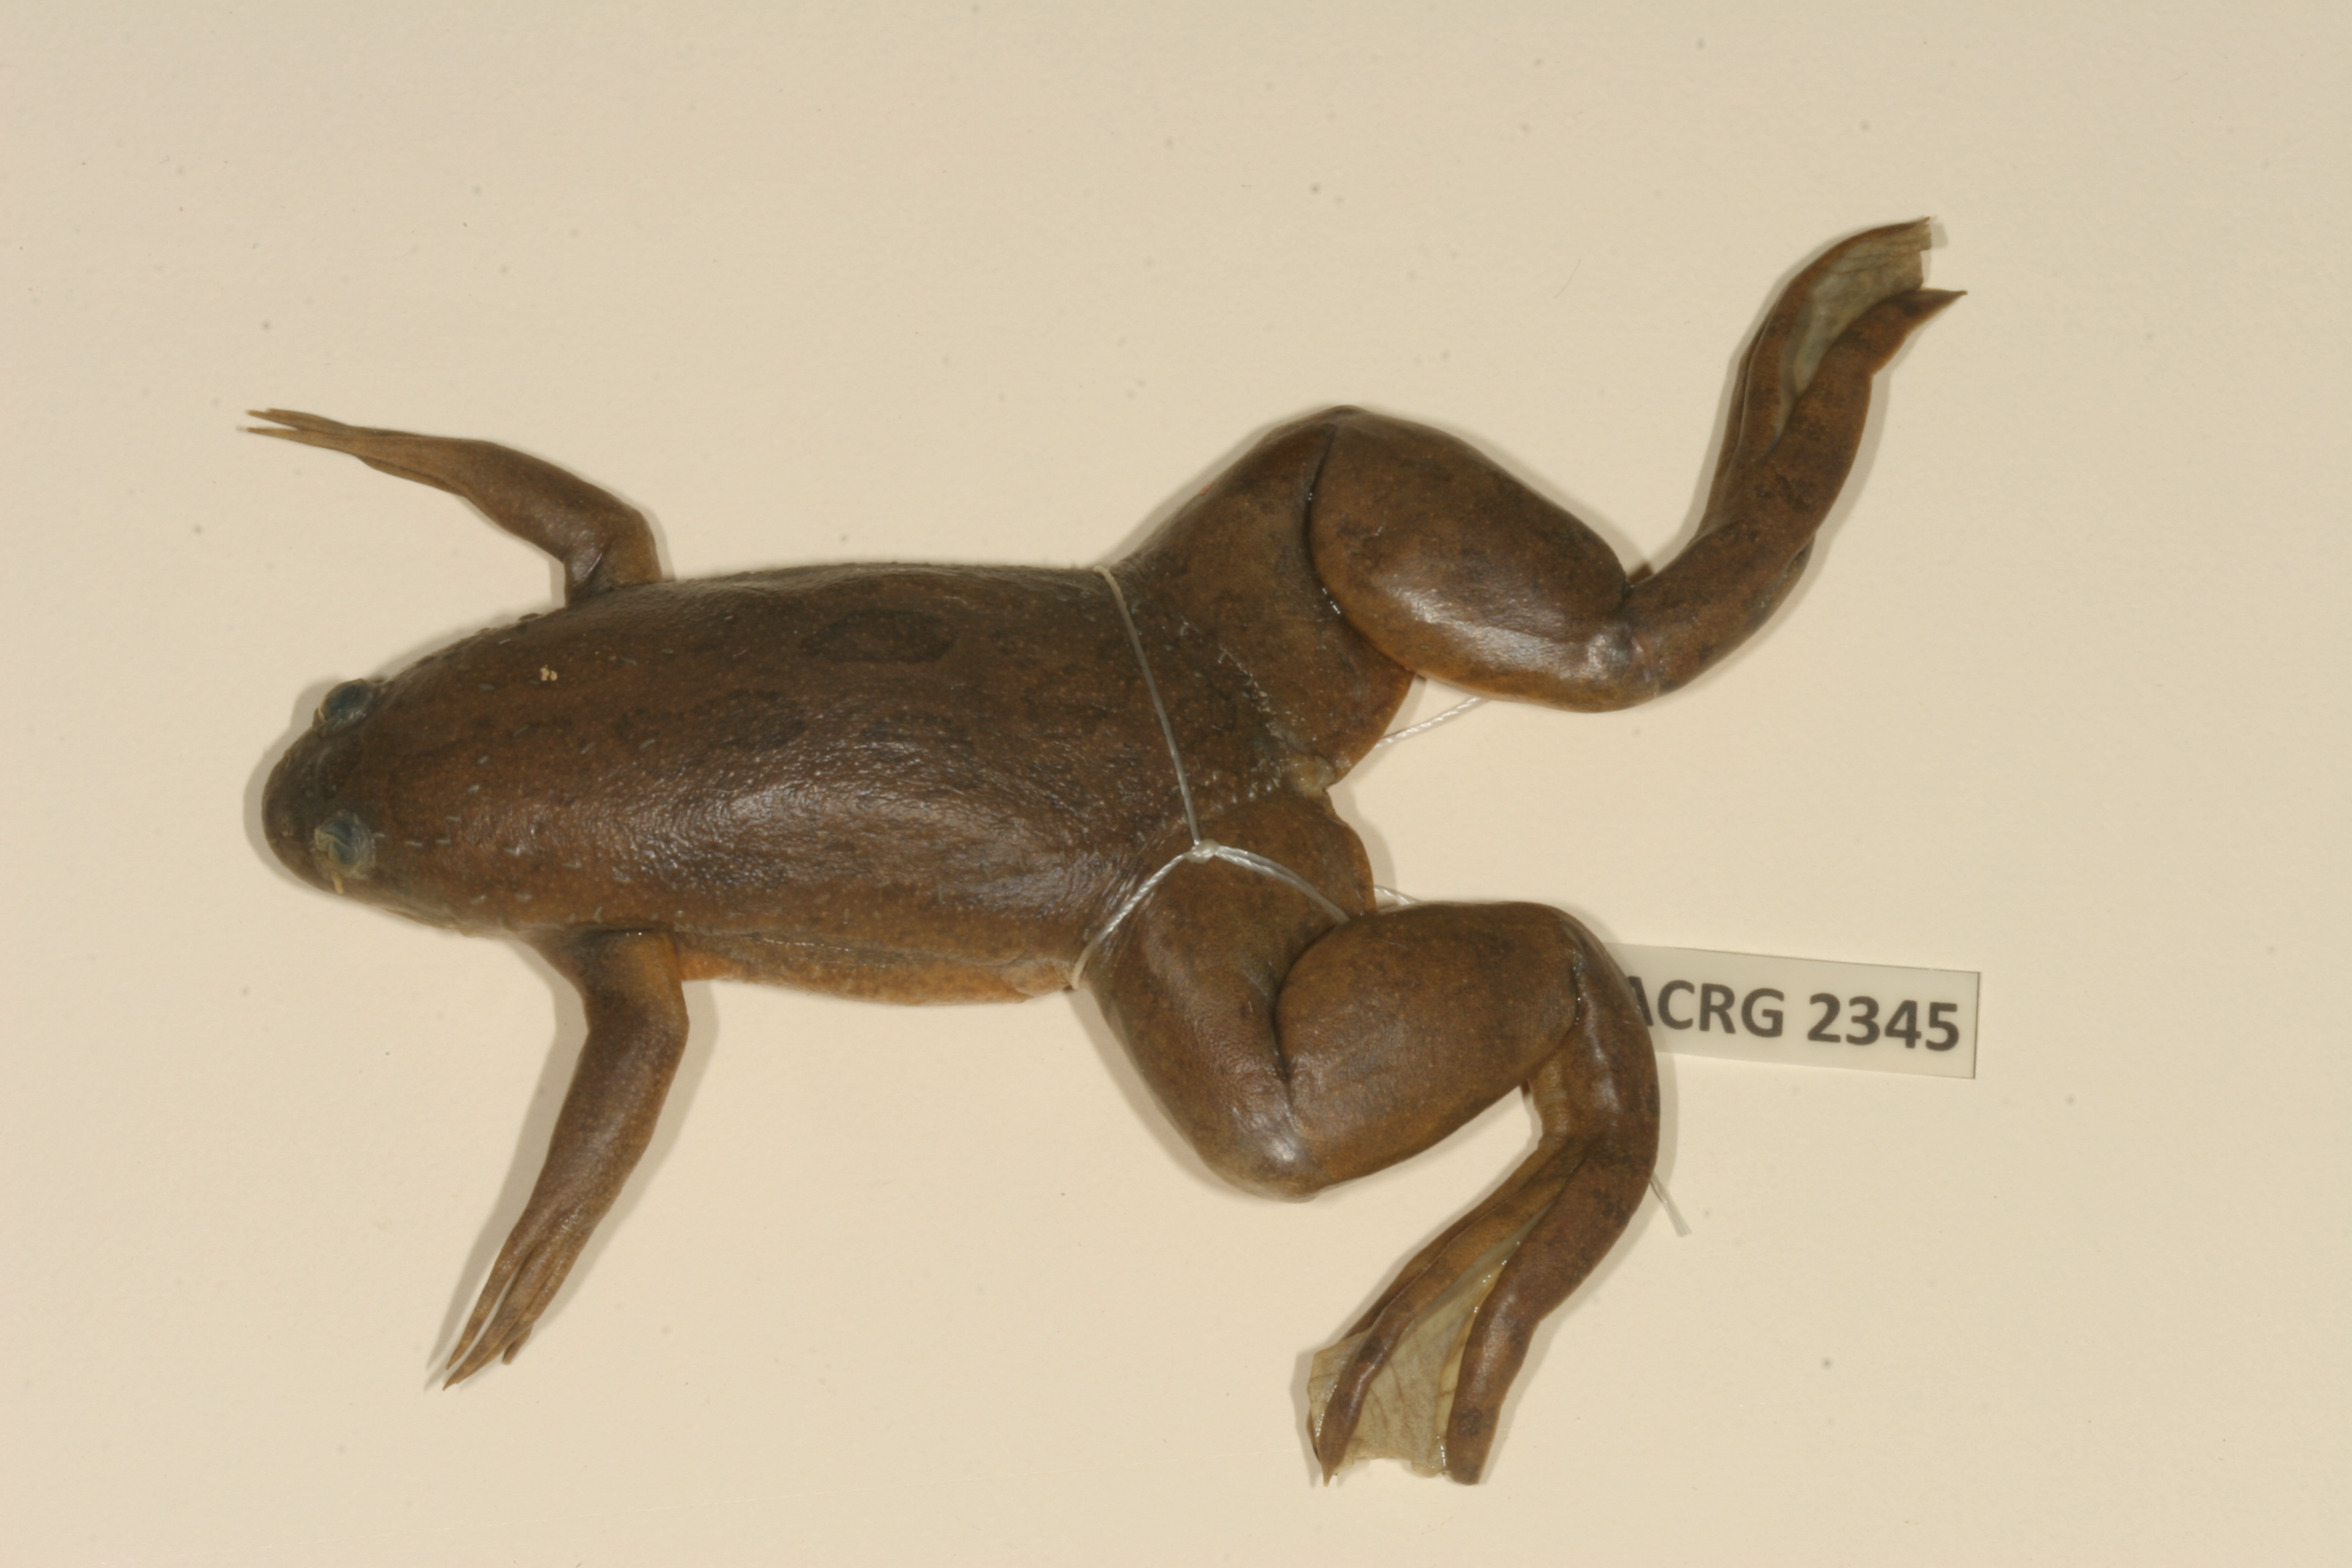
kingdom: Animalia
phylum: Chordata
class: Amphibia
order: Anura
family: Pipidae
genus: Xenopus
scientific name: Xenopus muelleri
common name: Muller's clawed frog
